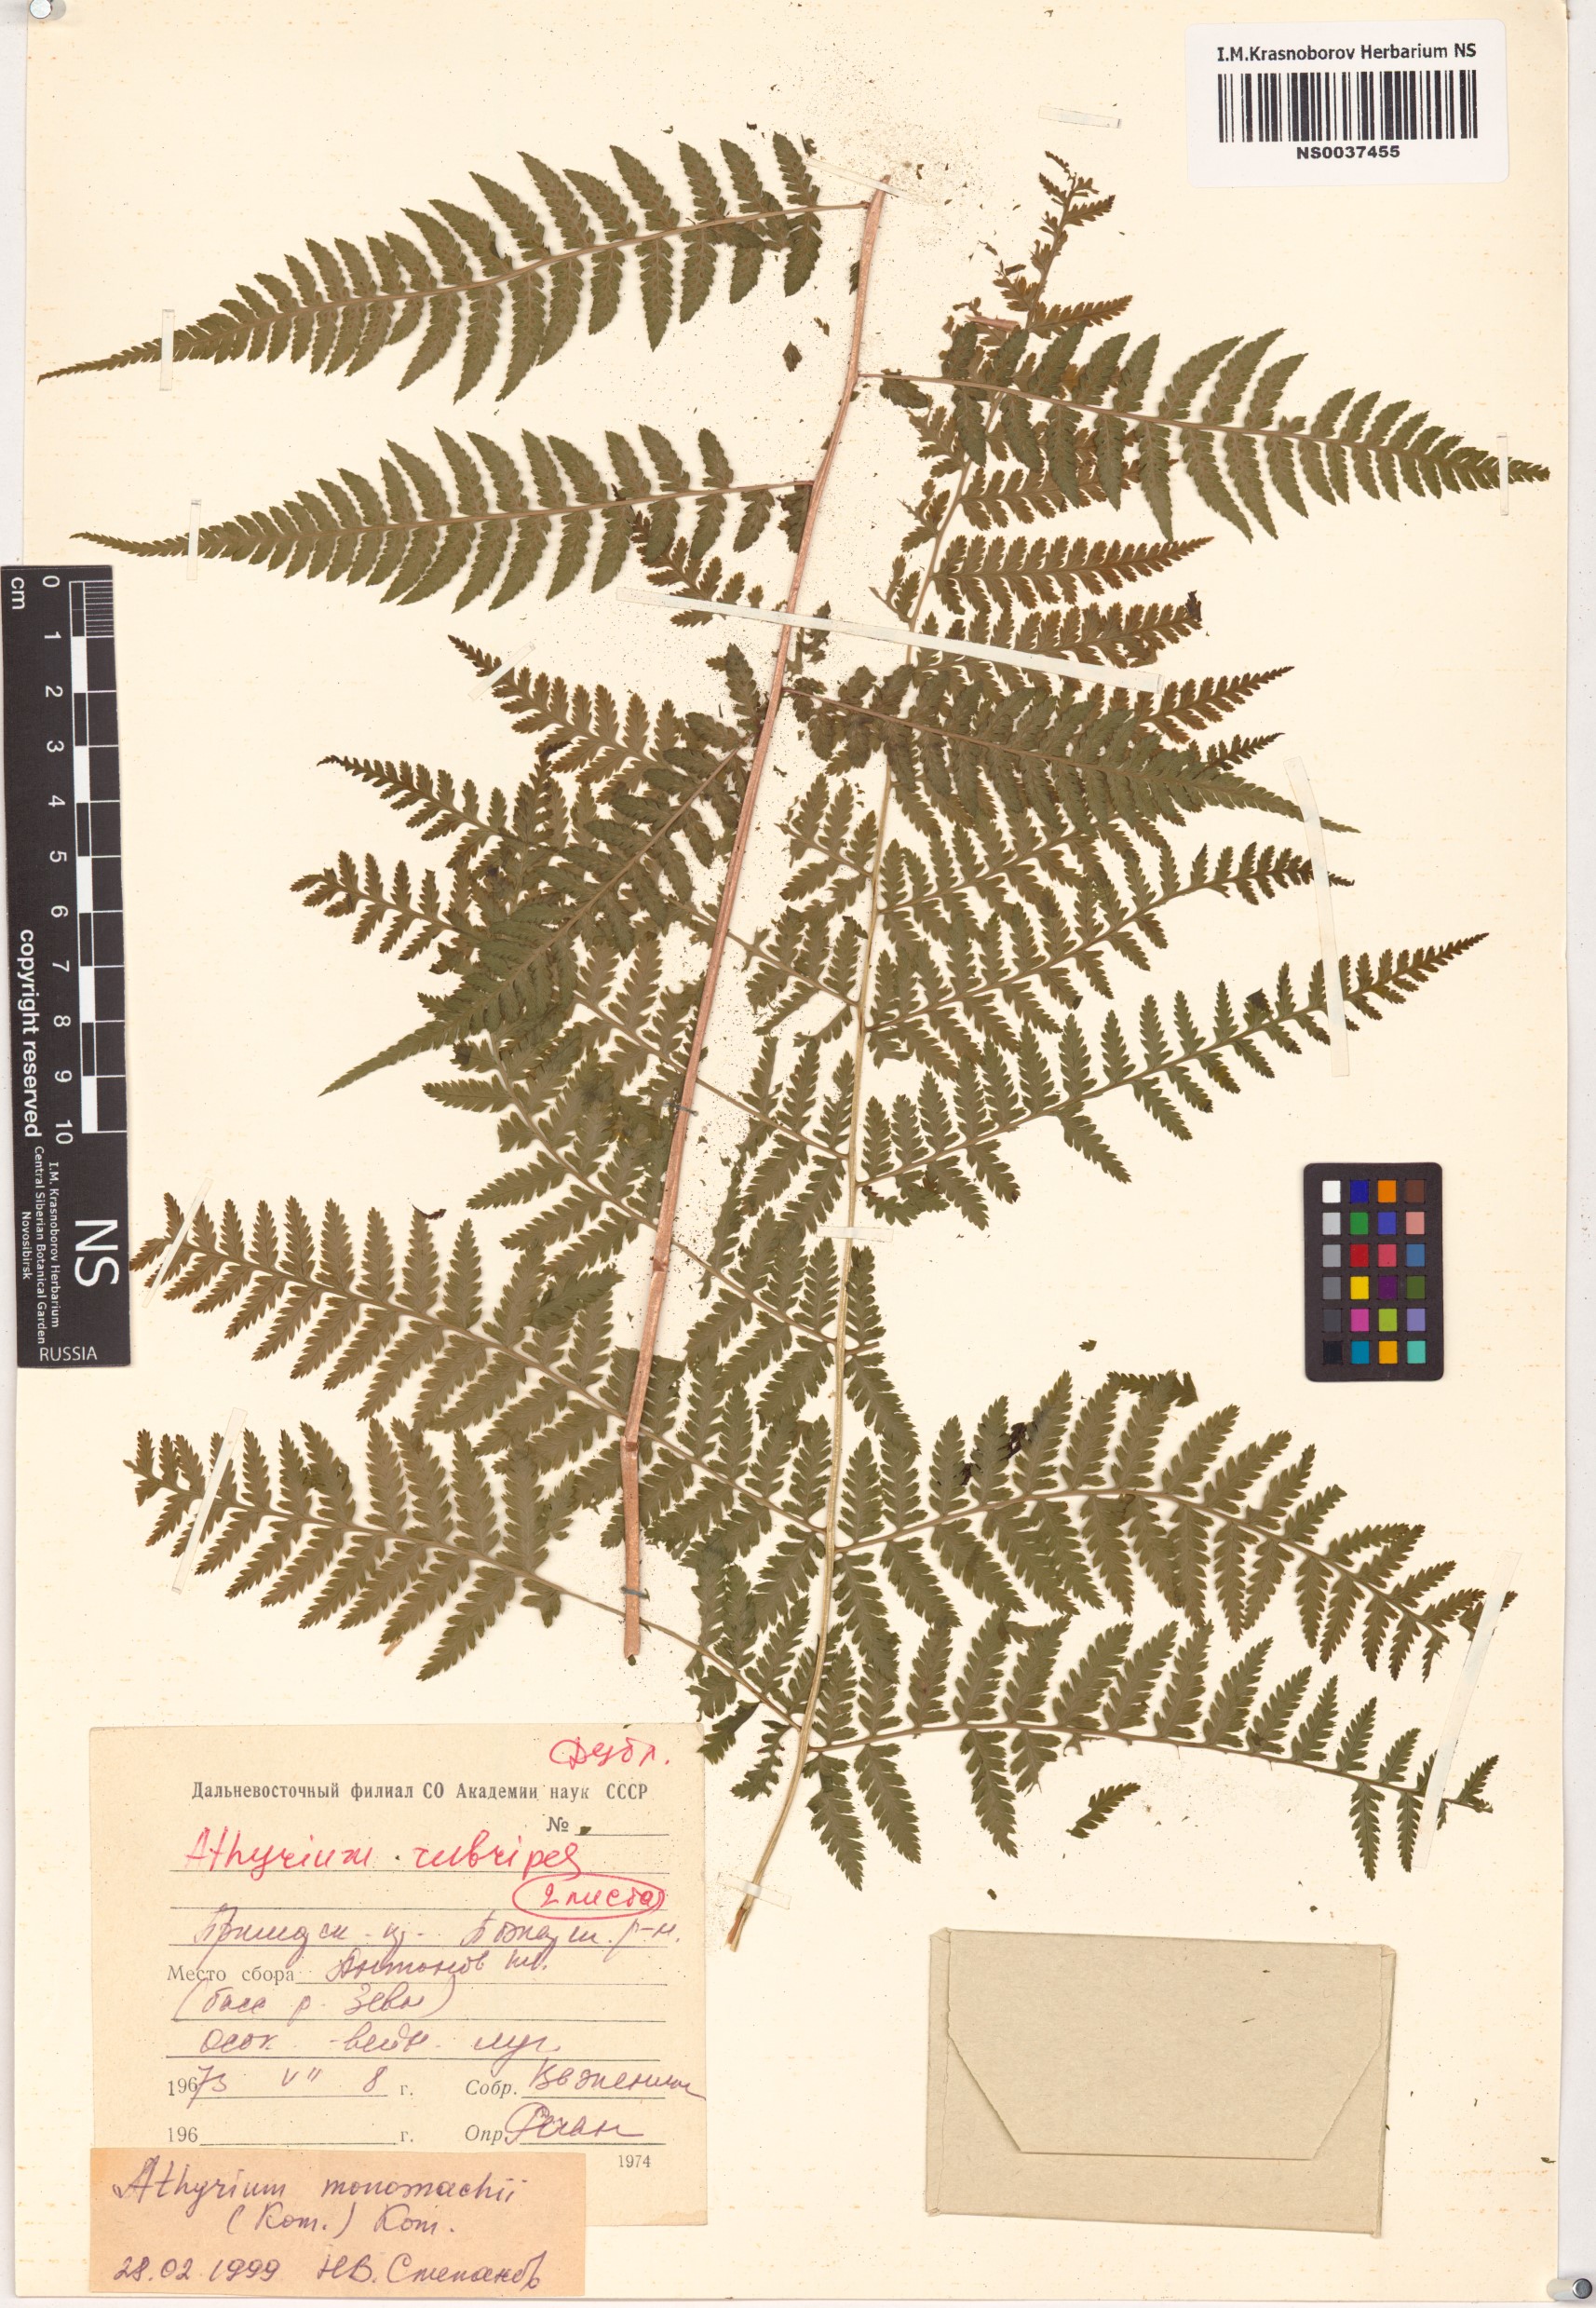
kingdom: Plantae
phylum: Tracheophyta
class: Polypodiopsida
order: Polypodiales
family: Athyriaceae
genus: Athyrium
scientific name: Athyrium monomachii
